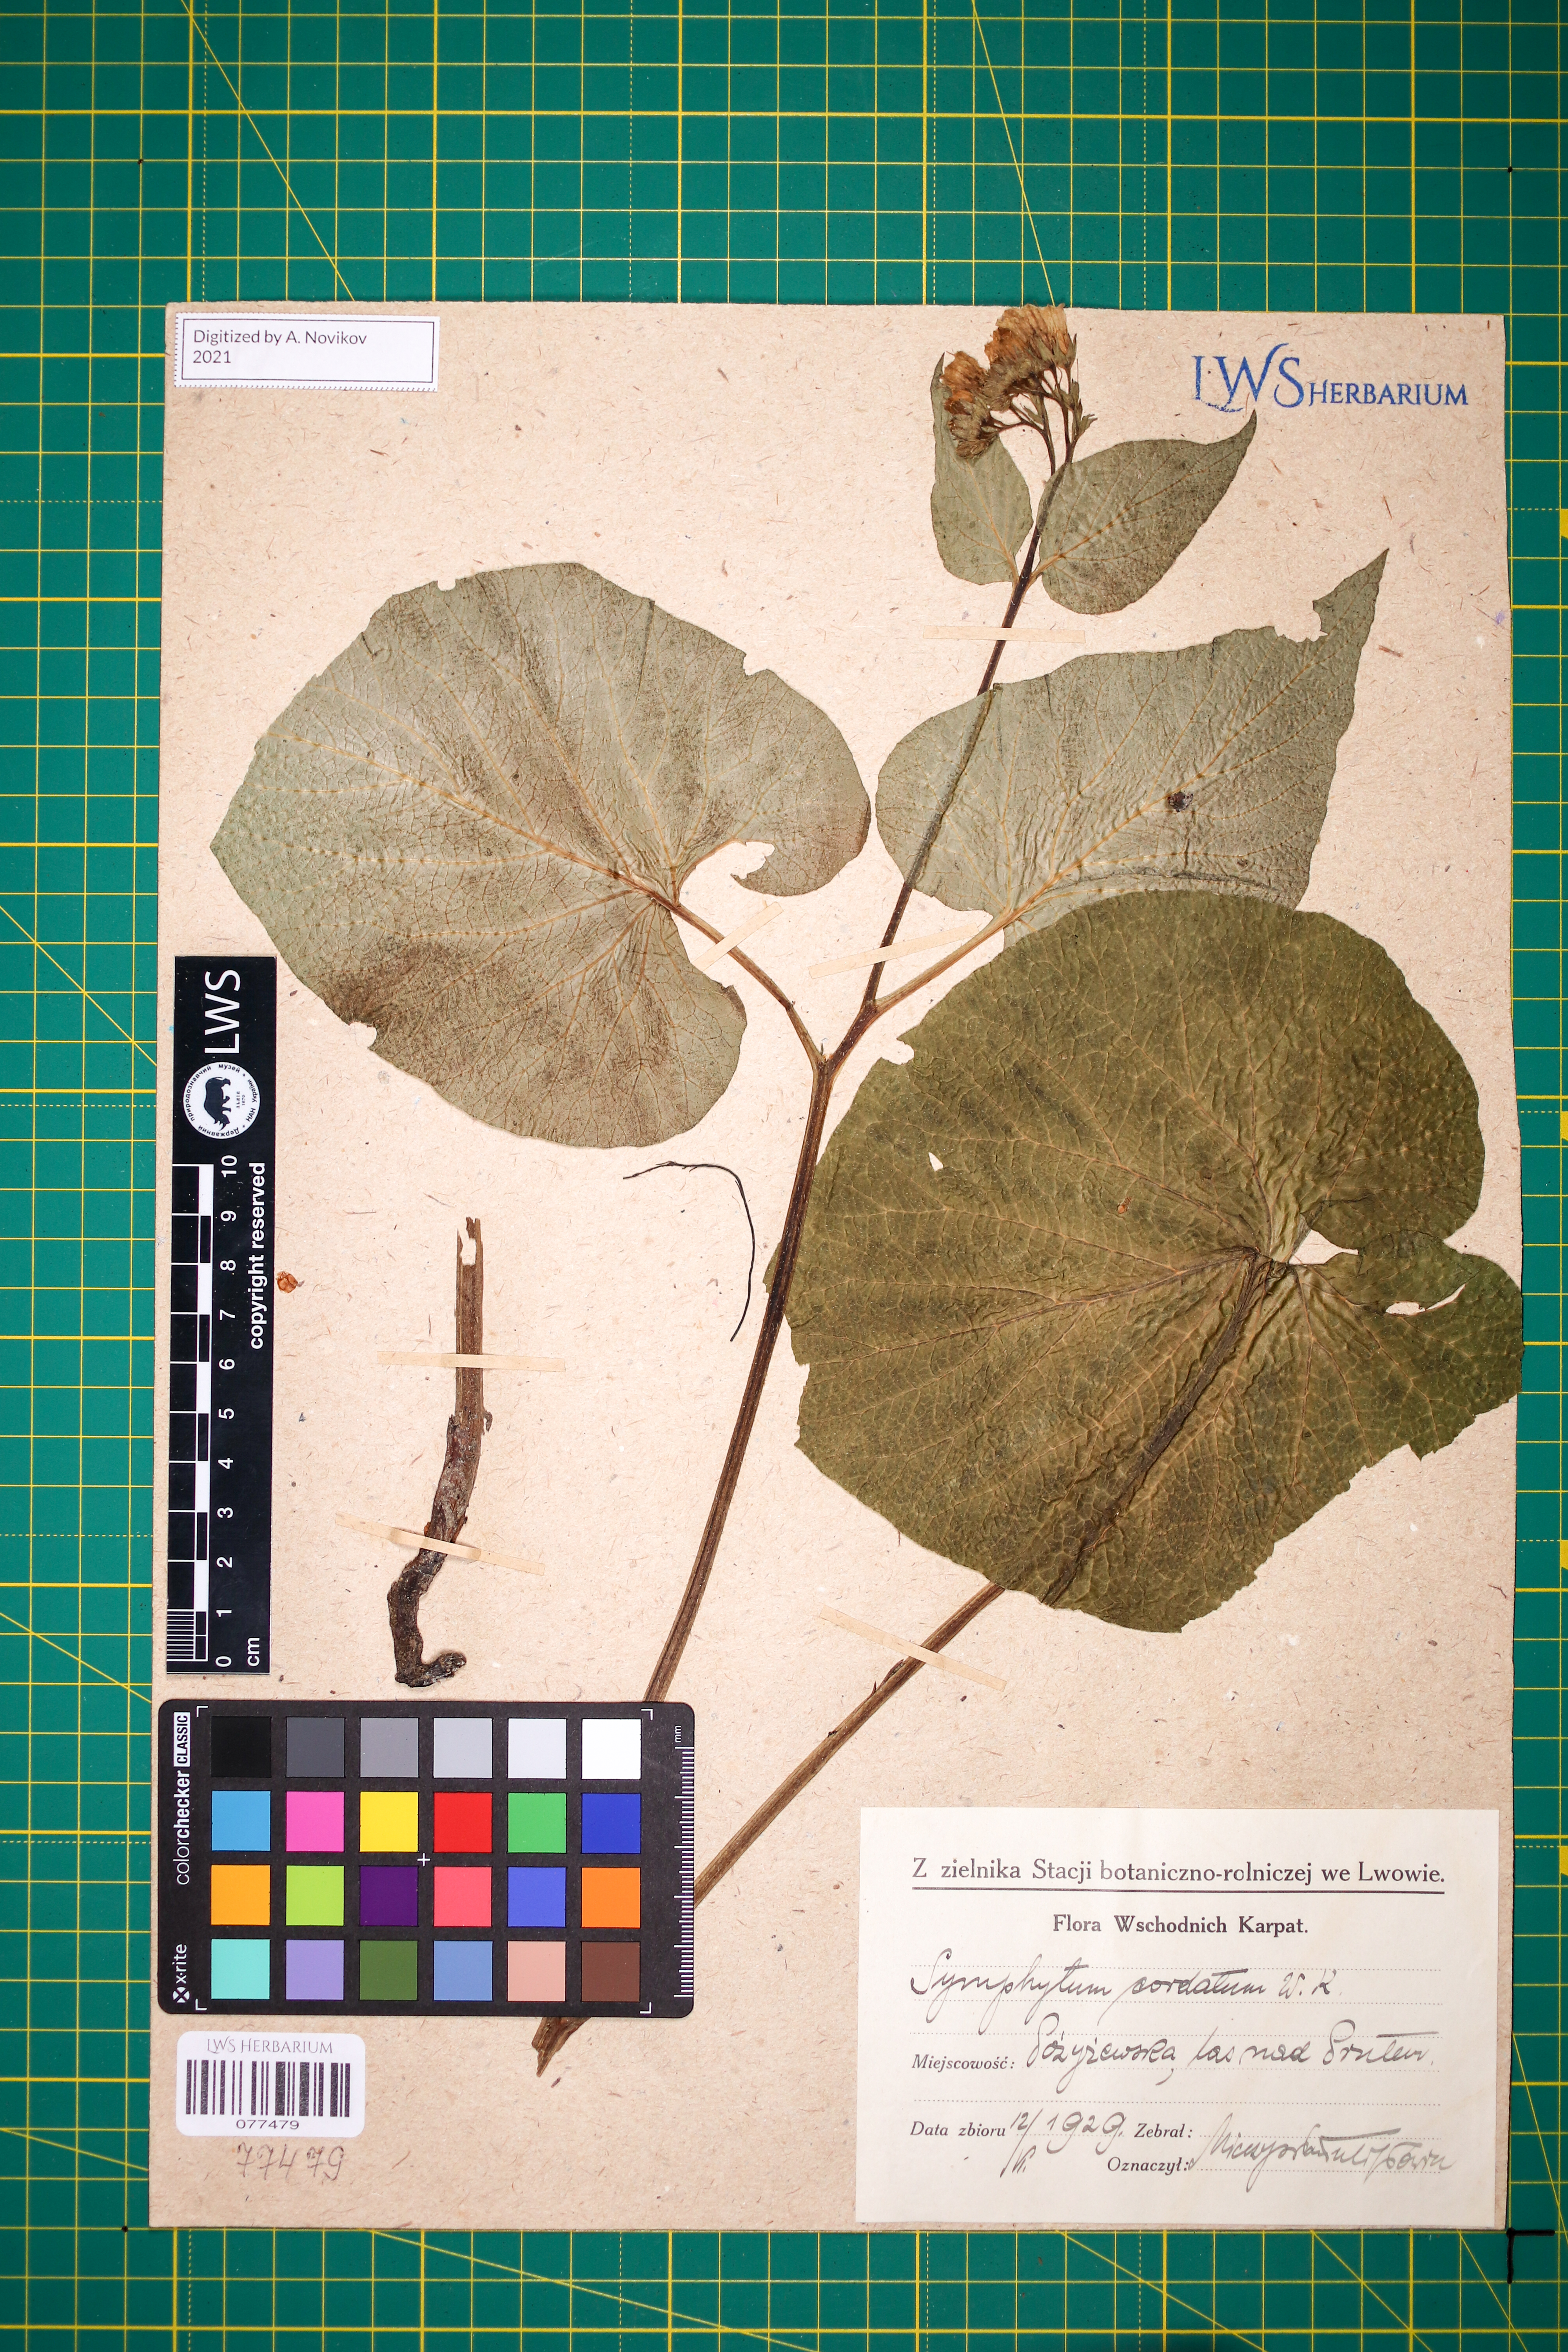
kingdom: Plantae
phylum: Tracheophyta
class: Magnoliopsida
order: Boraginales
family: Boraginaceae
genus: Symphytum
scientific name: Symphytum cordatum
